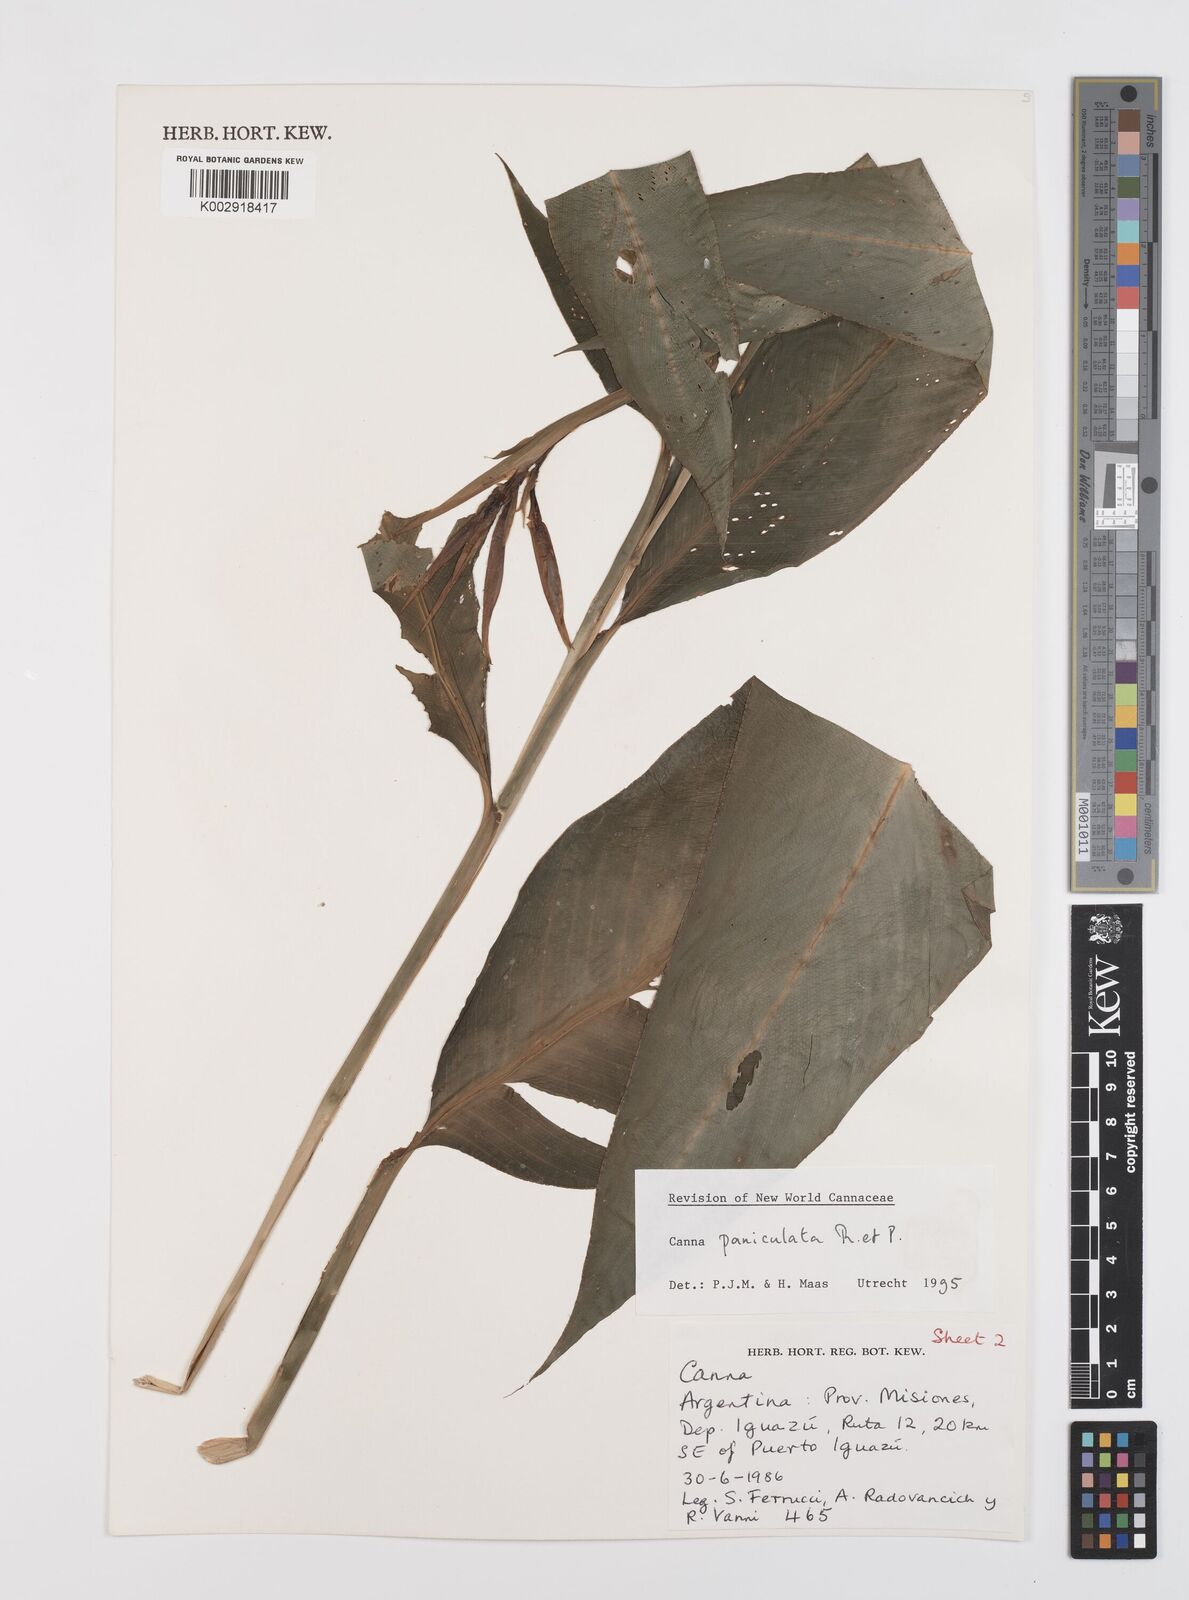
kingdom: Plantae
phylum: Tracheophyta
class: Liliopsida
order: Zingiberales
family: Cannaceae
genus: Canna
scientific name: Canna paniculata
